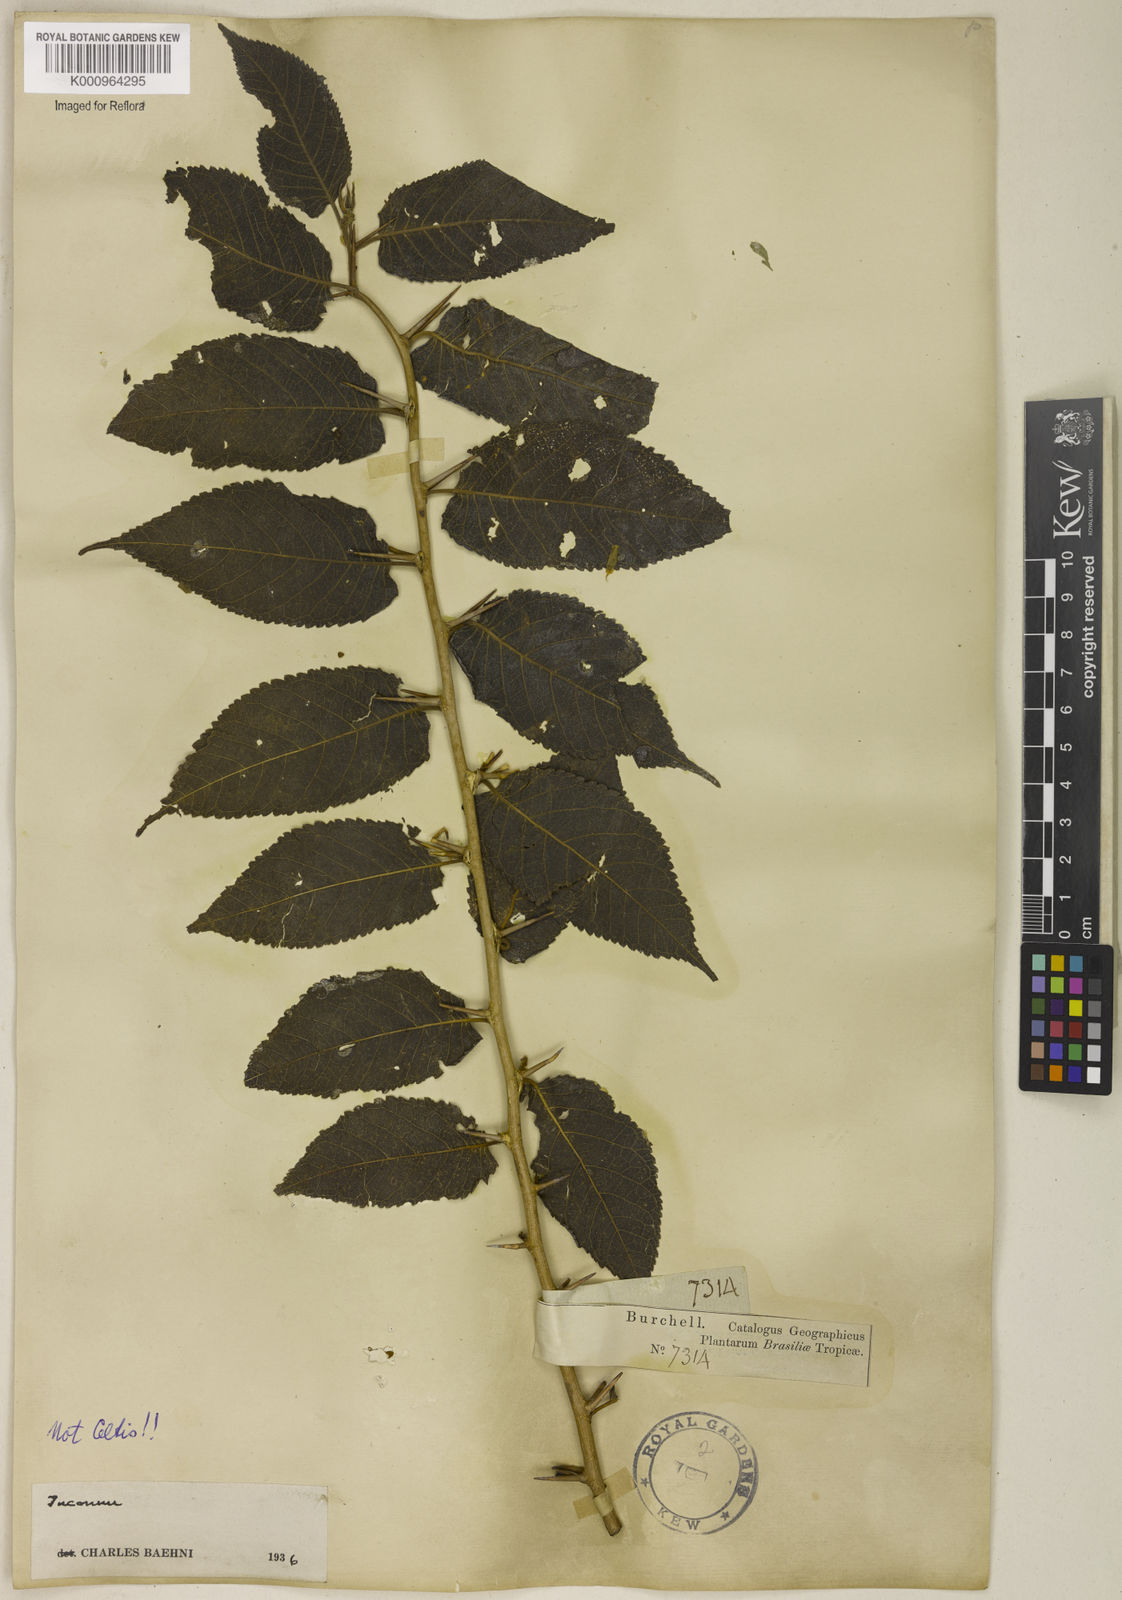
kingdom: Plantae
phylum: Tracheophyta
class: Magnoliopsida
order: Rosales
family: Cannabaceae
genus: Celtis
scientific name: Celtis
